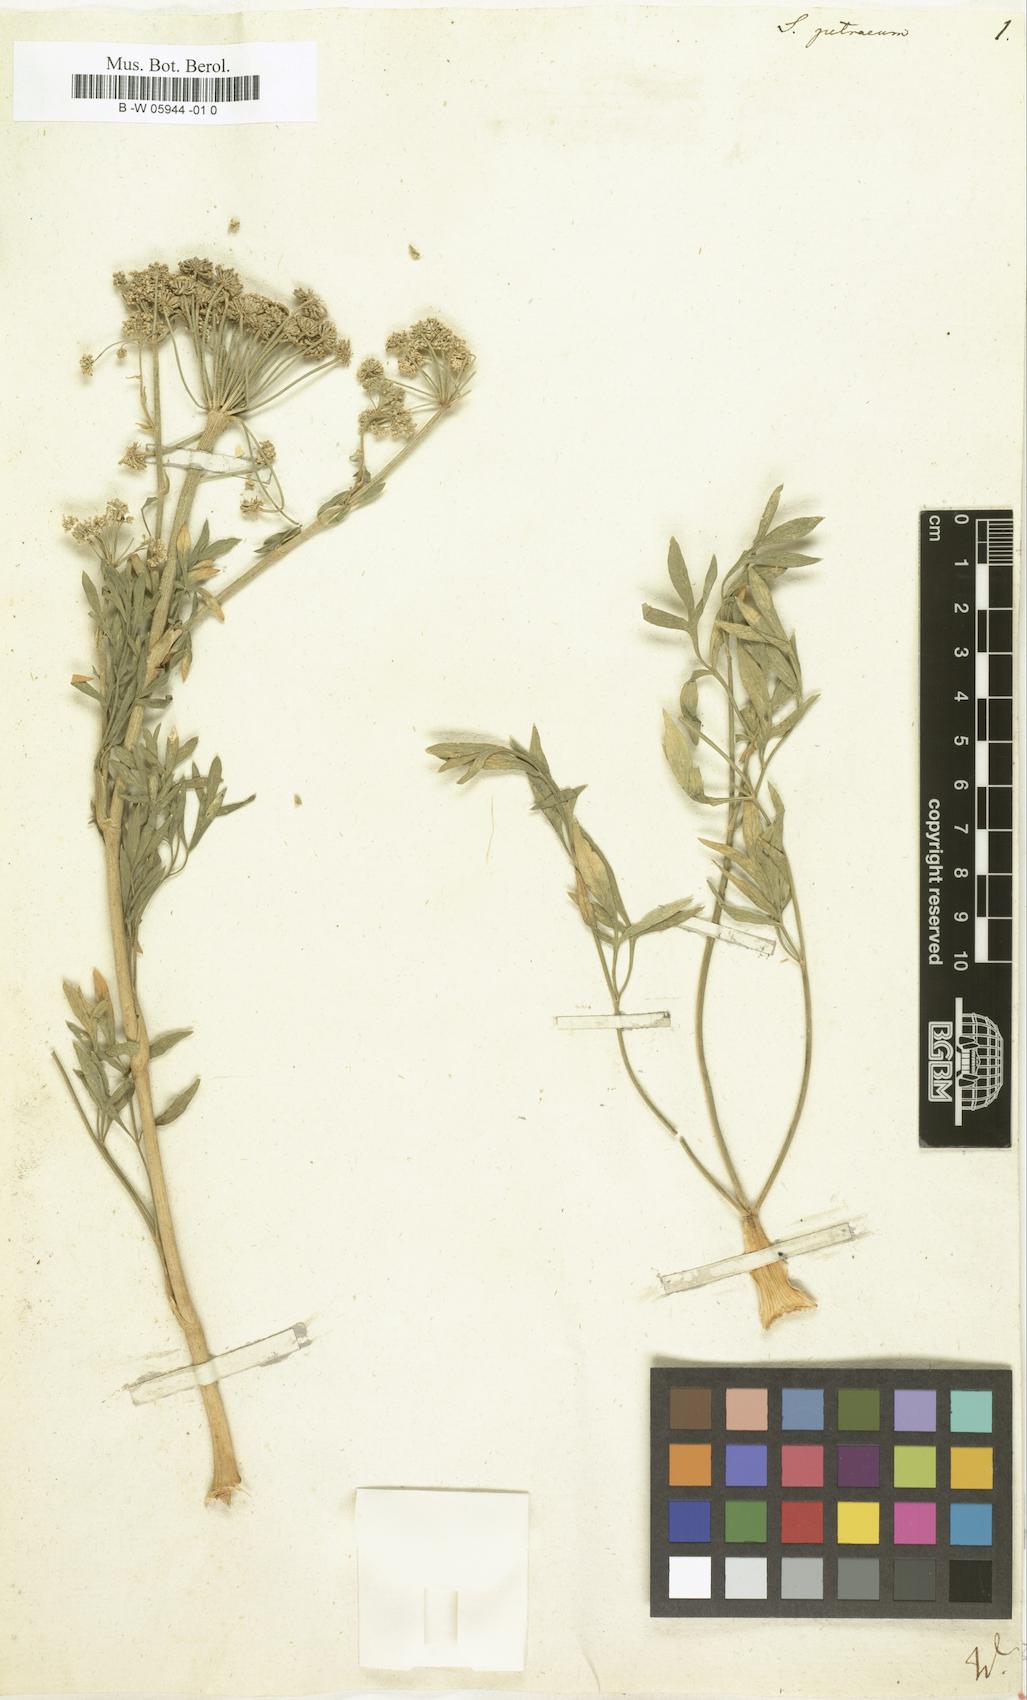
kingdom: Plantae
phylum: Tracheophyta
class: Magnoliopsida
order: Apiales
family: Apiaceae
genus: Hippomarathrum
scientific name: Hippomarathrum petraeum
